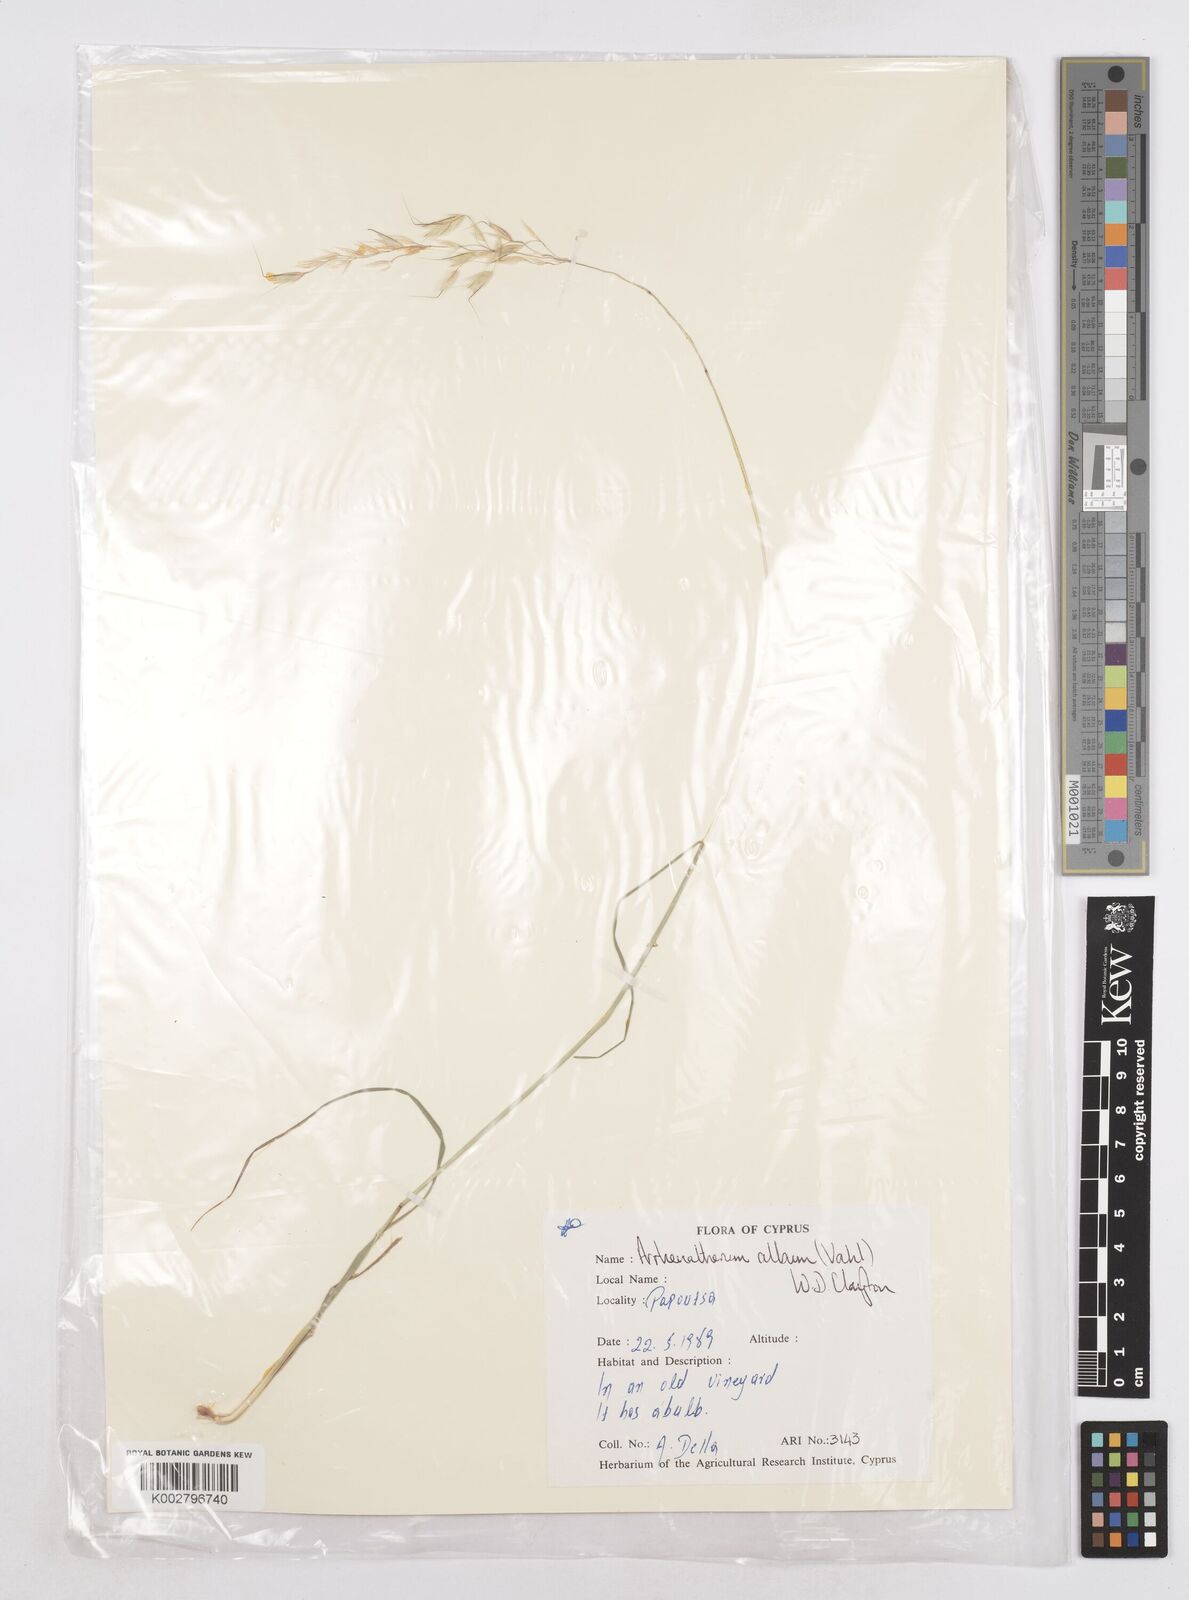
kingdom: Plantae
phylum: Tracheophyta
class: Liliopsida
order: Poales
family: Poaceae
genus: Arrhenatherum
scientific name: Arrhenatherum album
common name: Tall oat grass
